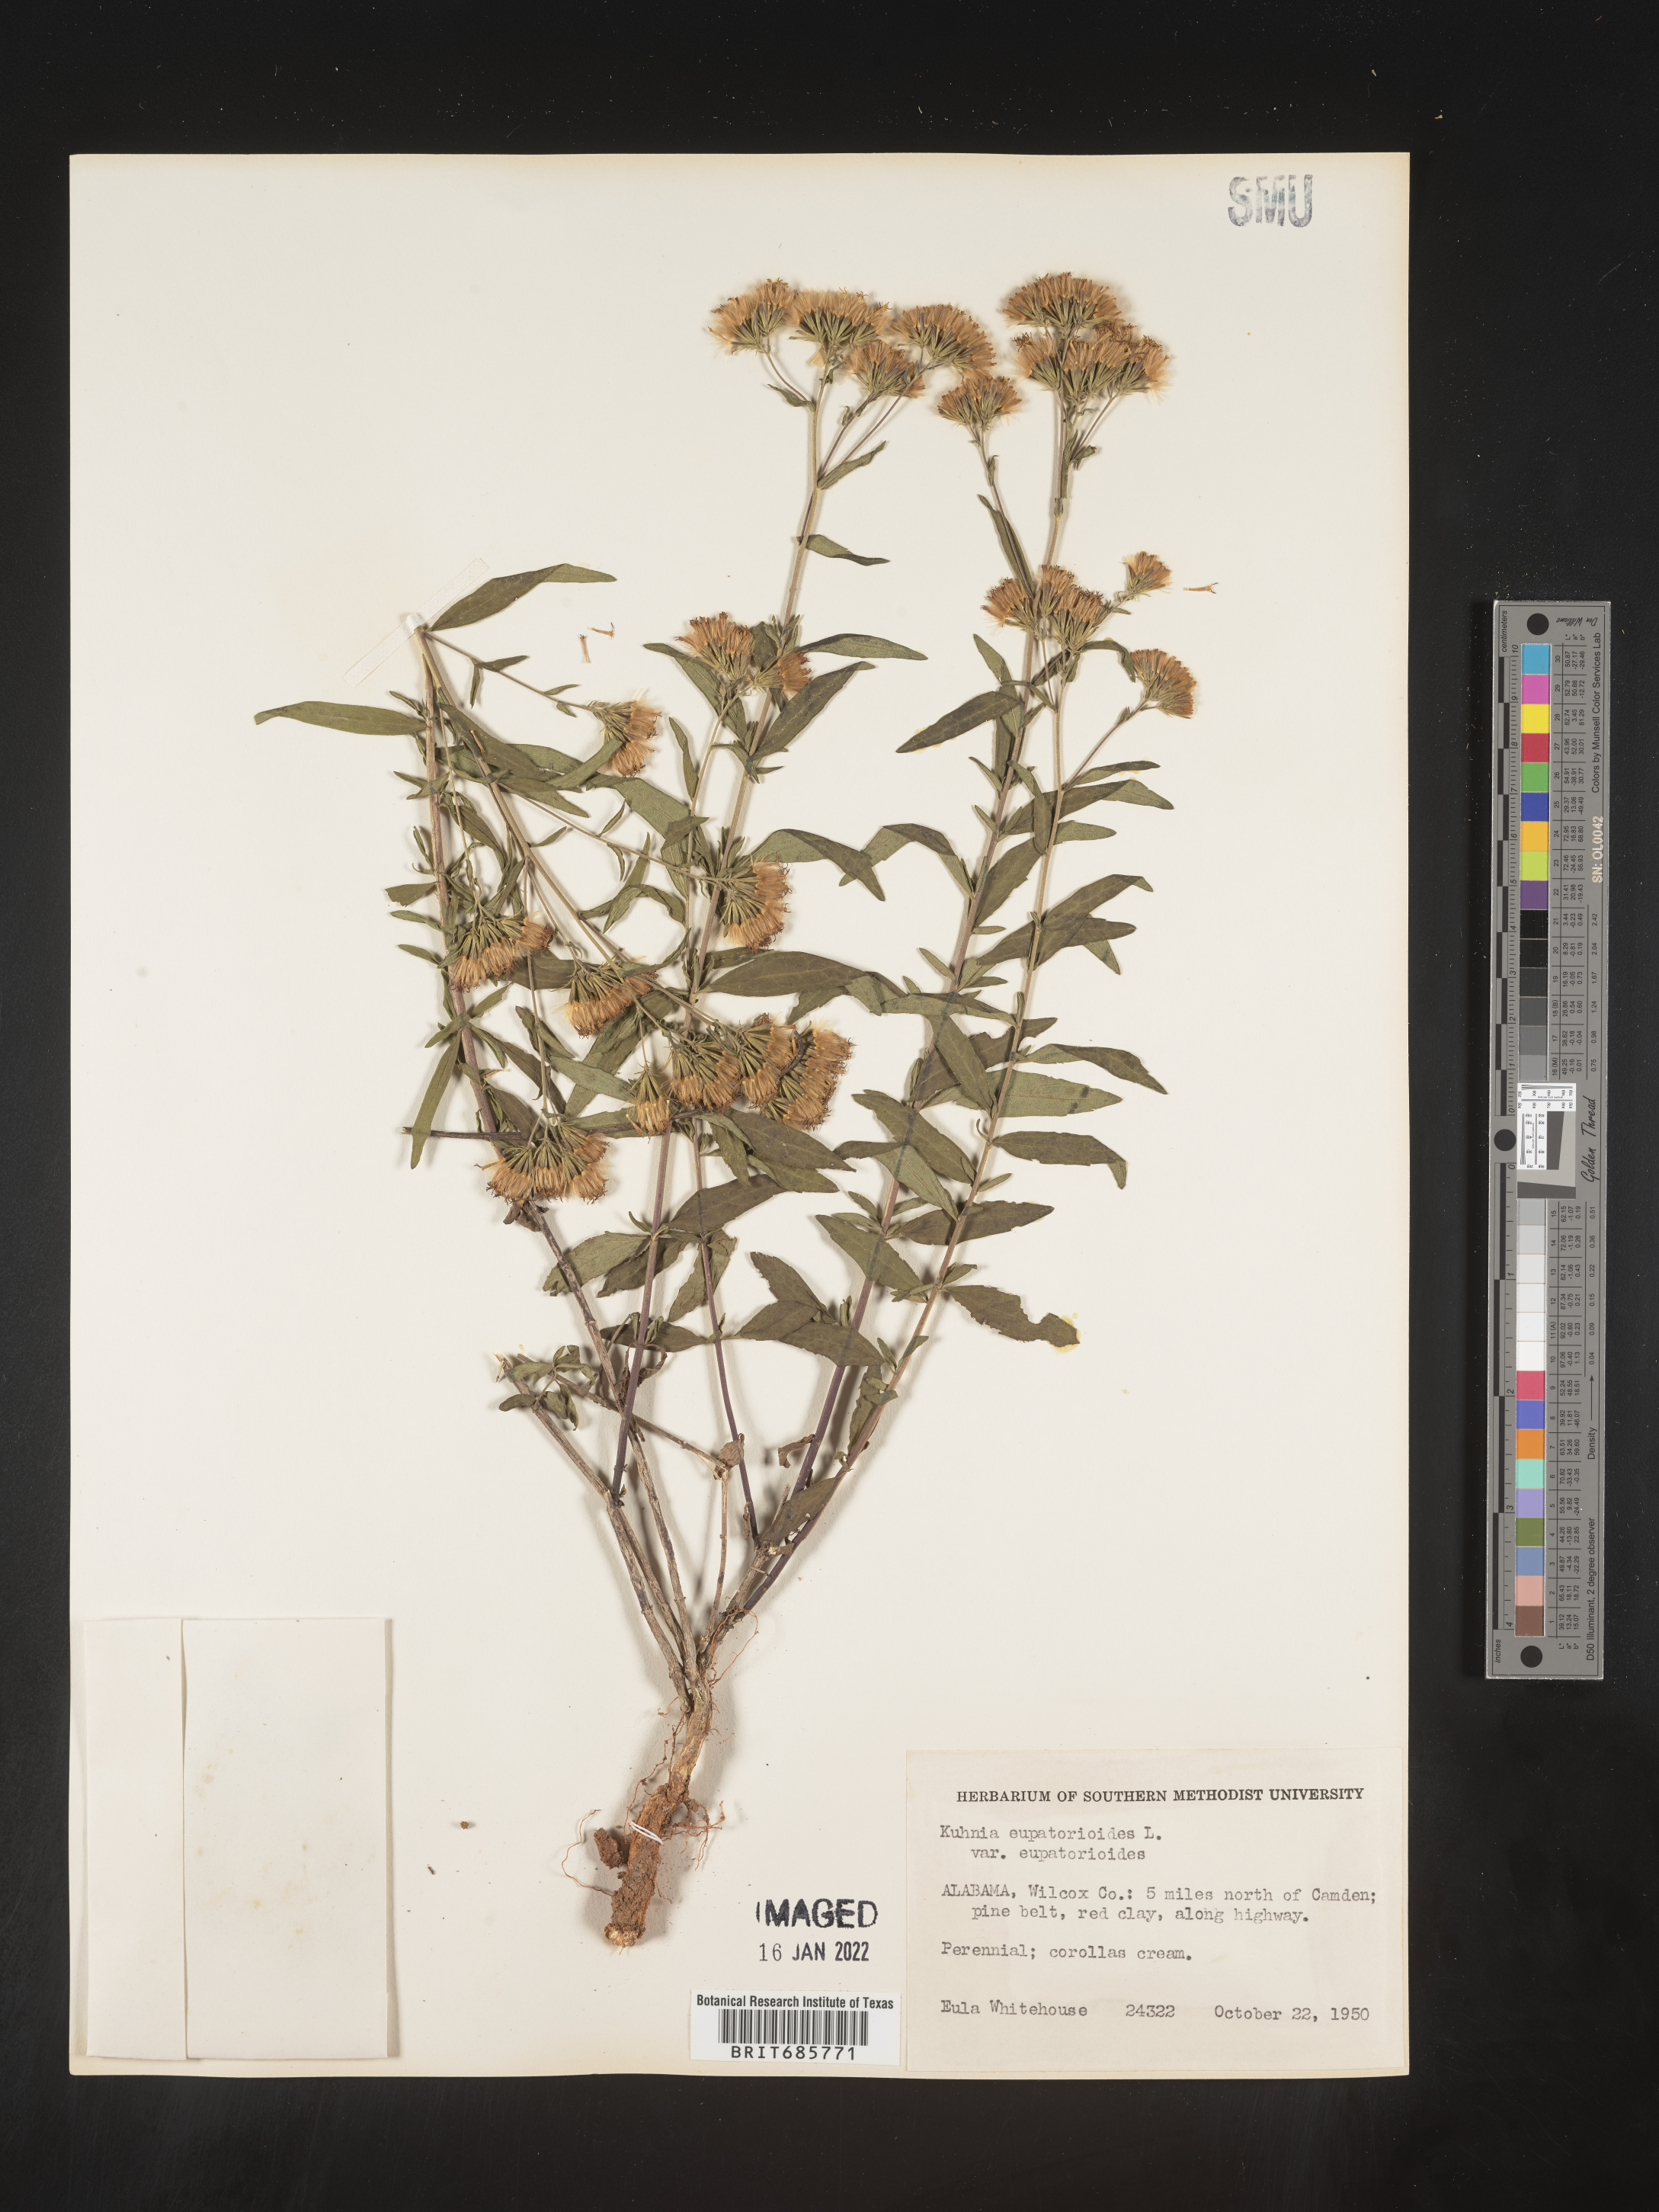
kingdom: Plantae
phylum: Tracheophyta
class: Magnoliopsida
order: Asterales
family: Asteraceae
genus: Brickellia
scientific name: Brickellia eupatorioides
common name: False boneset
